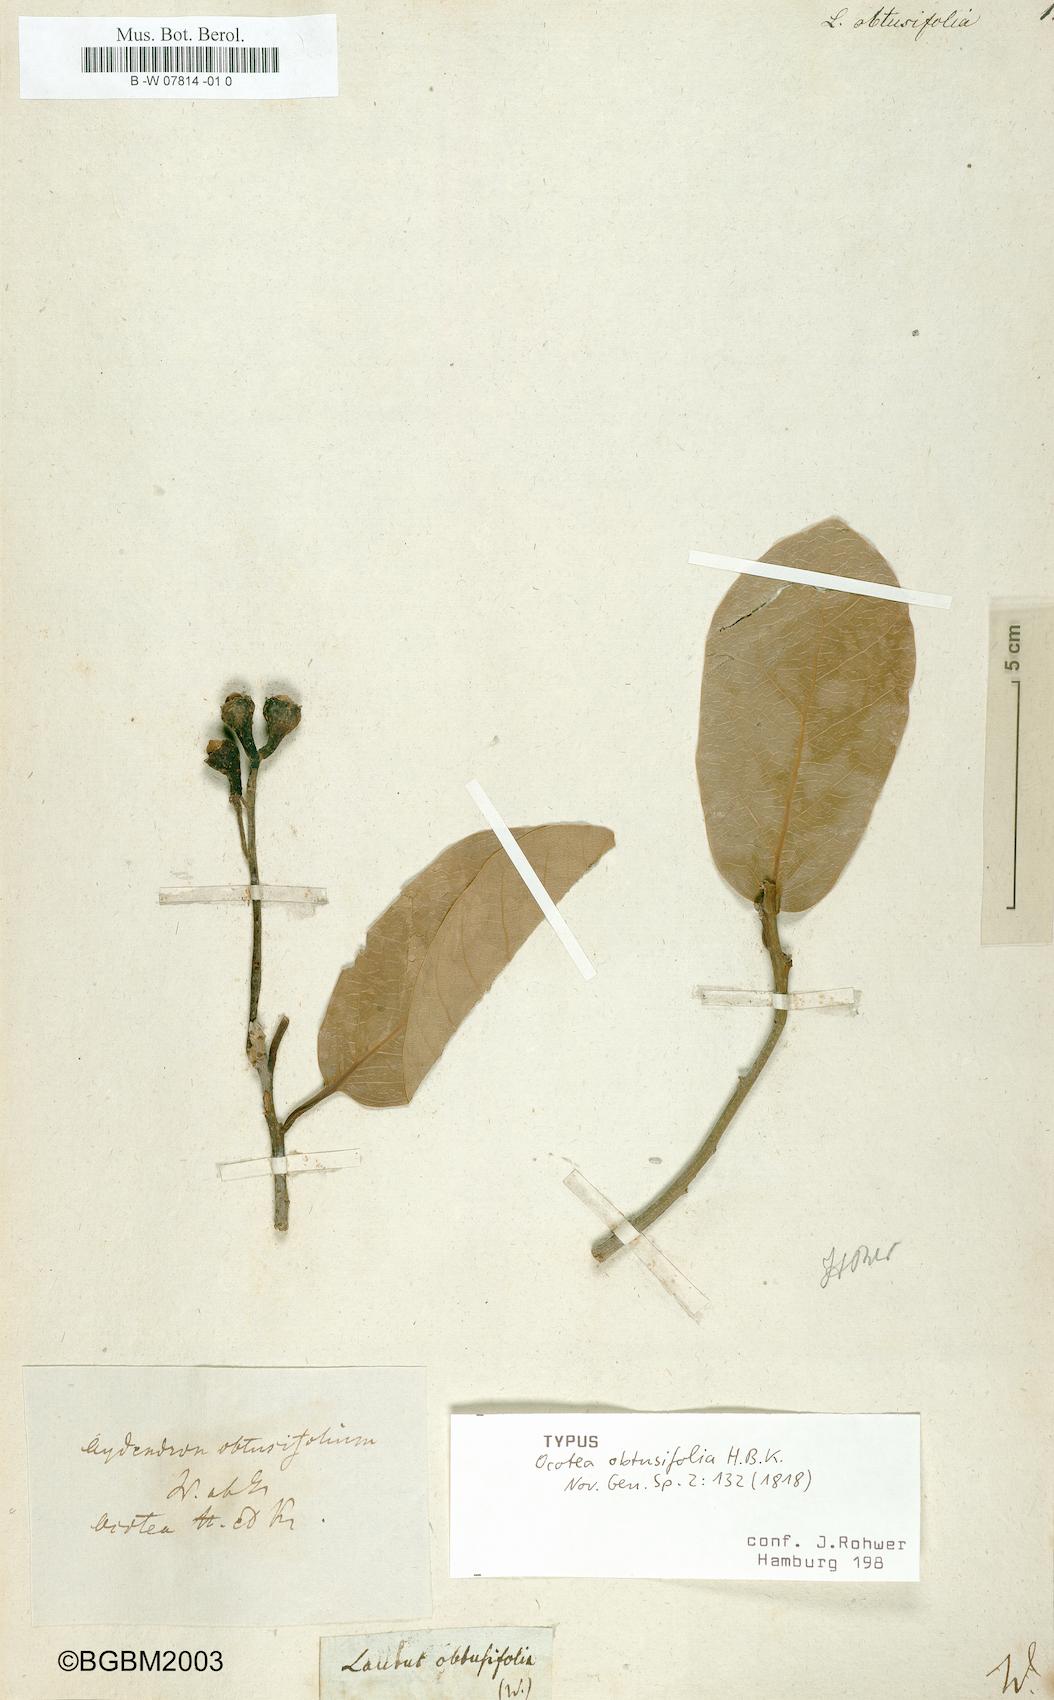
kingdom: Plantae
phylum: Tracheophyta
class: Magnoliopsida
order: Laurales
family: Lauraceae
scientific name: Lauraceae
